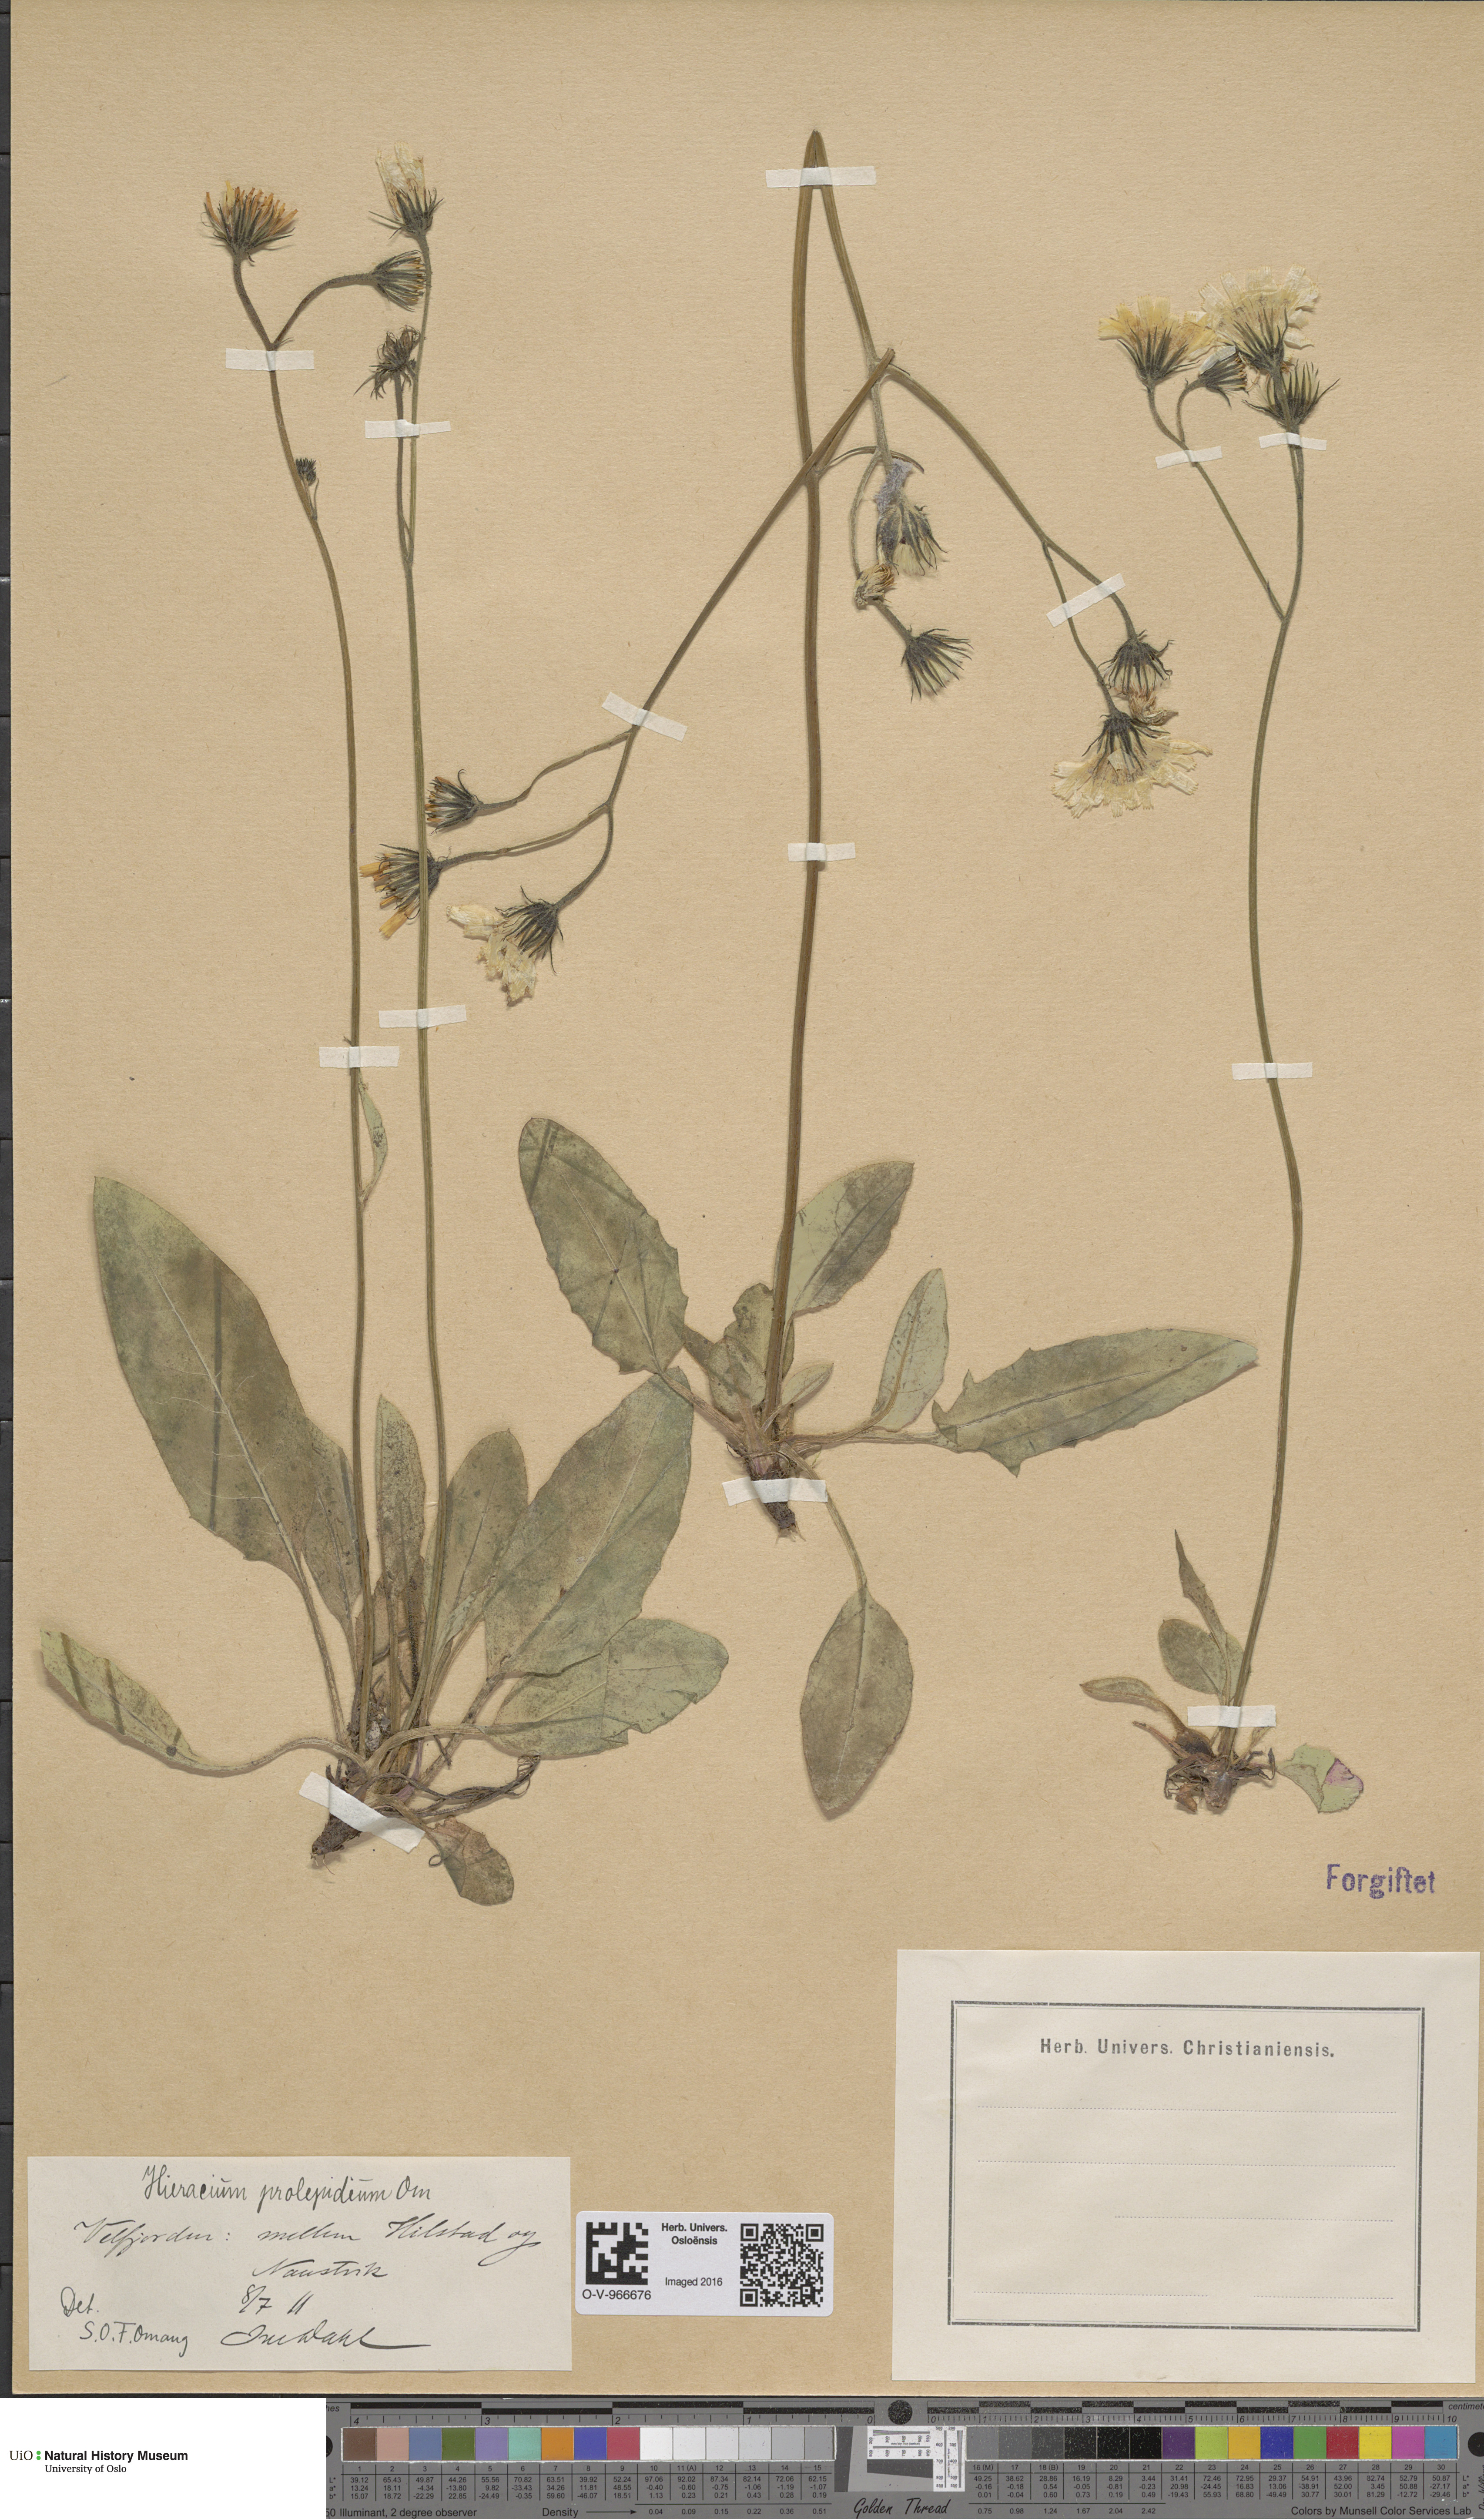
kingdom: Plantae
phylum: Tracheophyta
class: Magnoliopsida
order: Asterales
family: Asteraceae
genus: Hieracium
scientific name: Hieracium prolepideum
